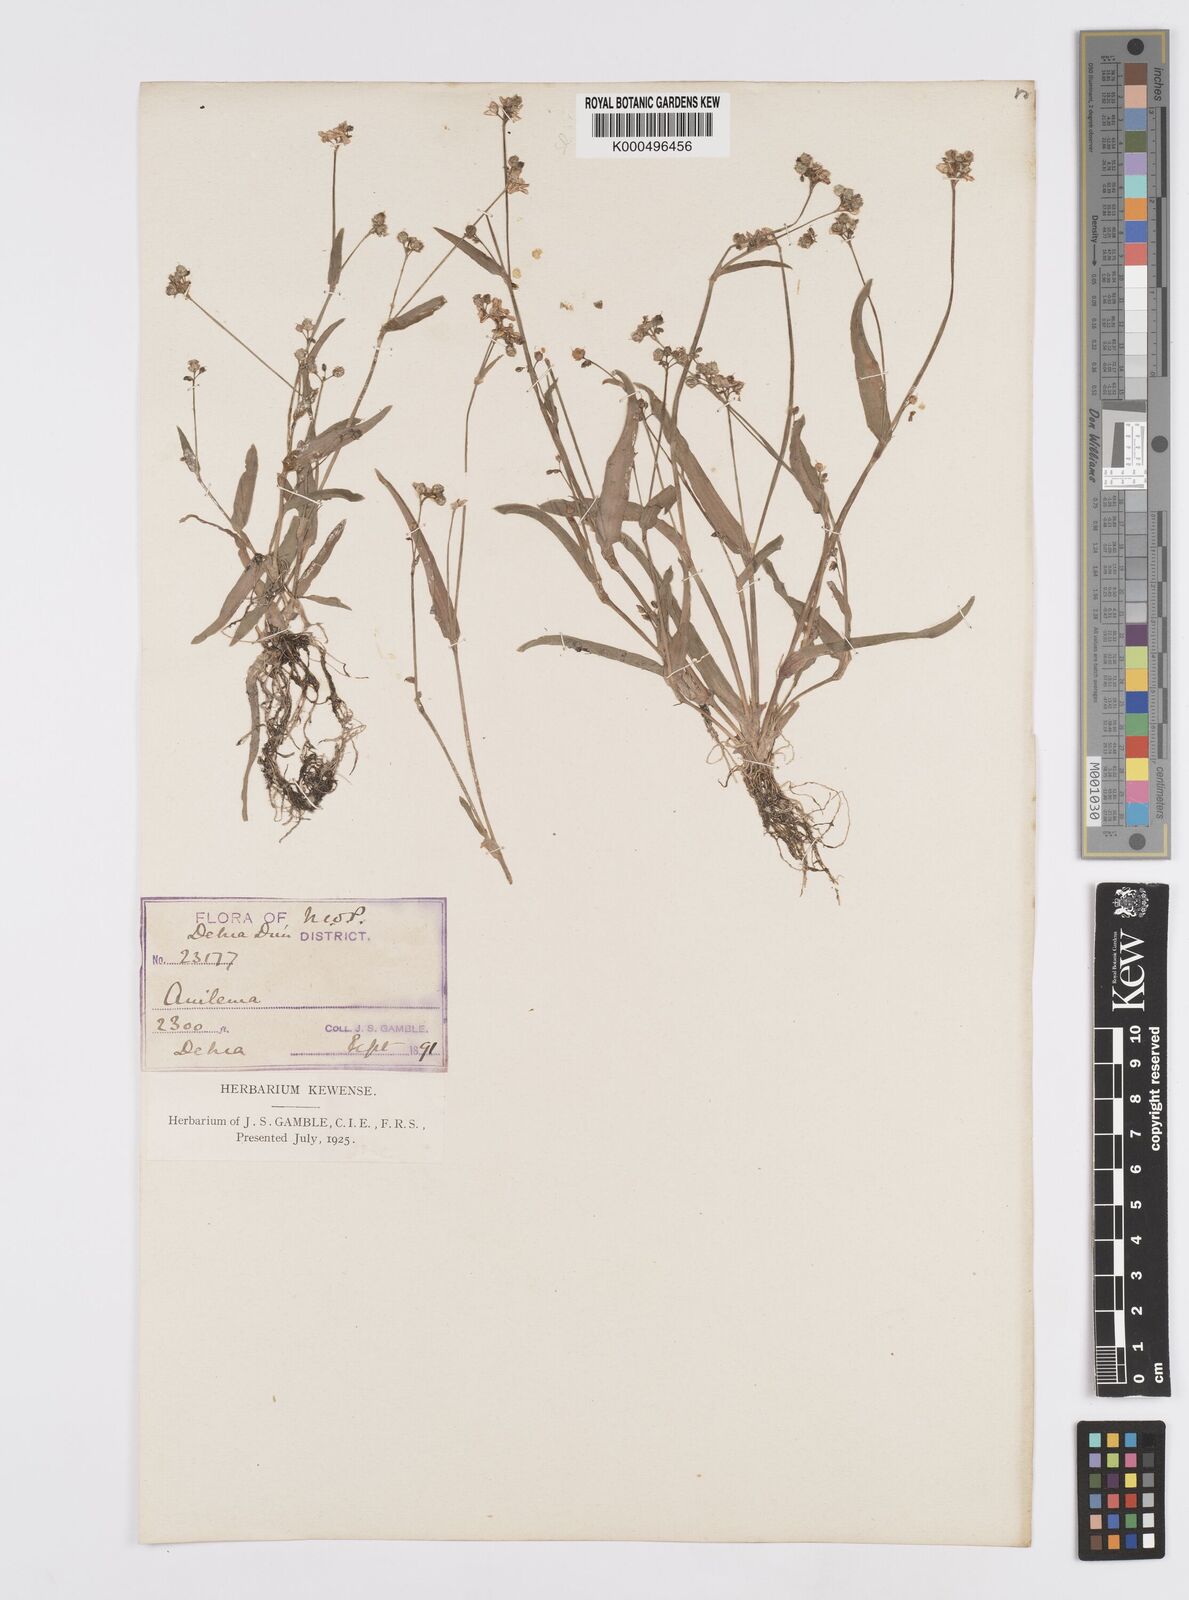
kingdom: Plantae
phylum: Tracheophyta
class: Liliopsida
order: Commelinales
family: Commelinaceae
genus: Murdannia
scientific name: Murdannia
